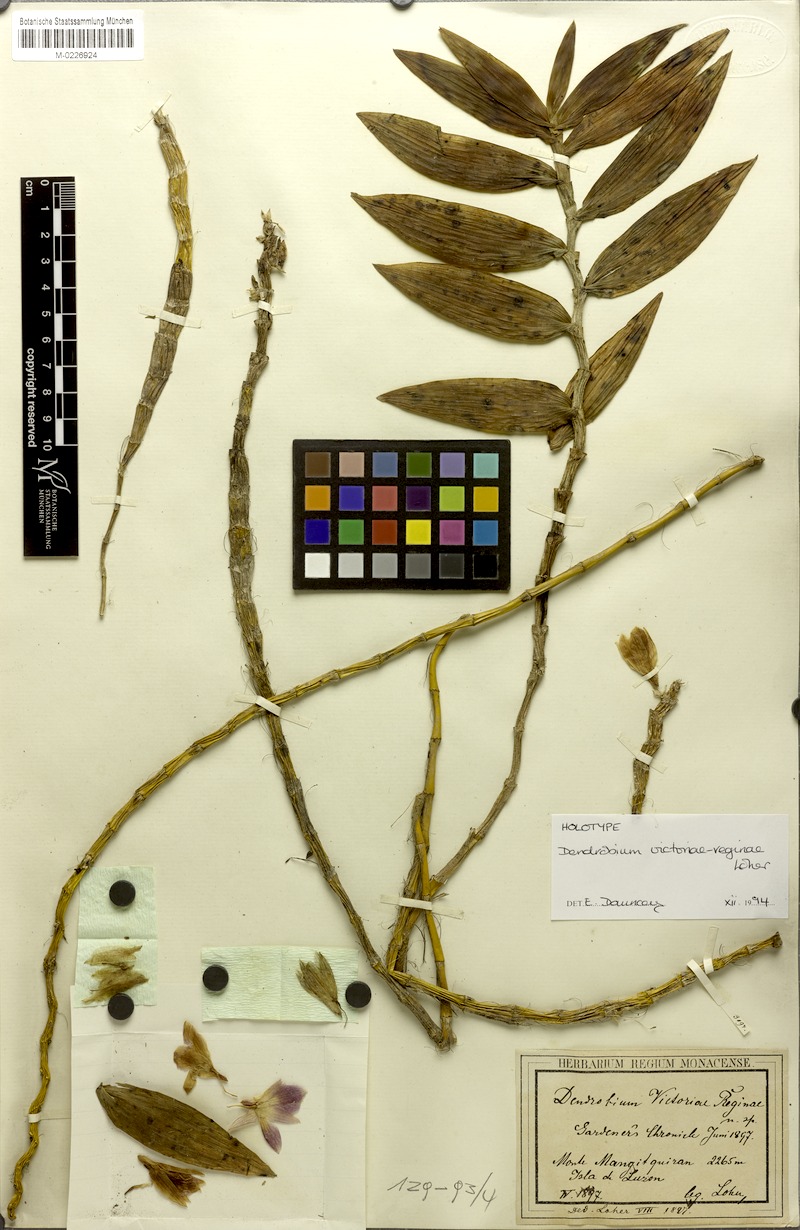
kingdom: Plantae
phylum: Tracheophyta
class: Liliopsida
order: Asparagales
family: Orchidaceae
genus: Dendrobium
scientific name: Dendrobium victoriae-reginae
